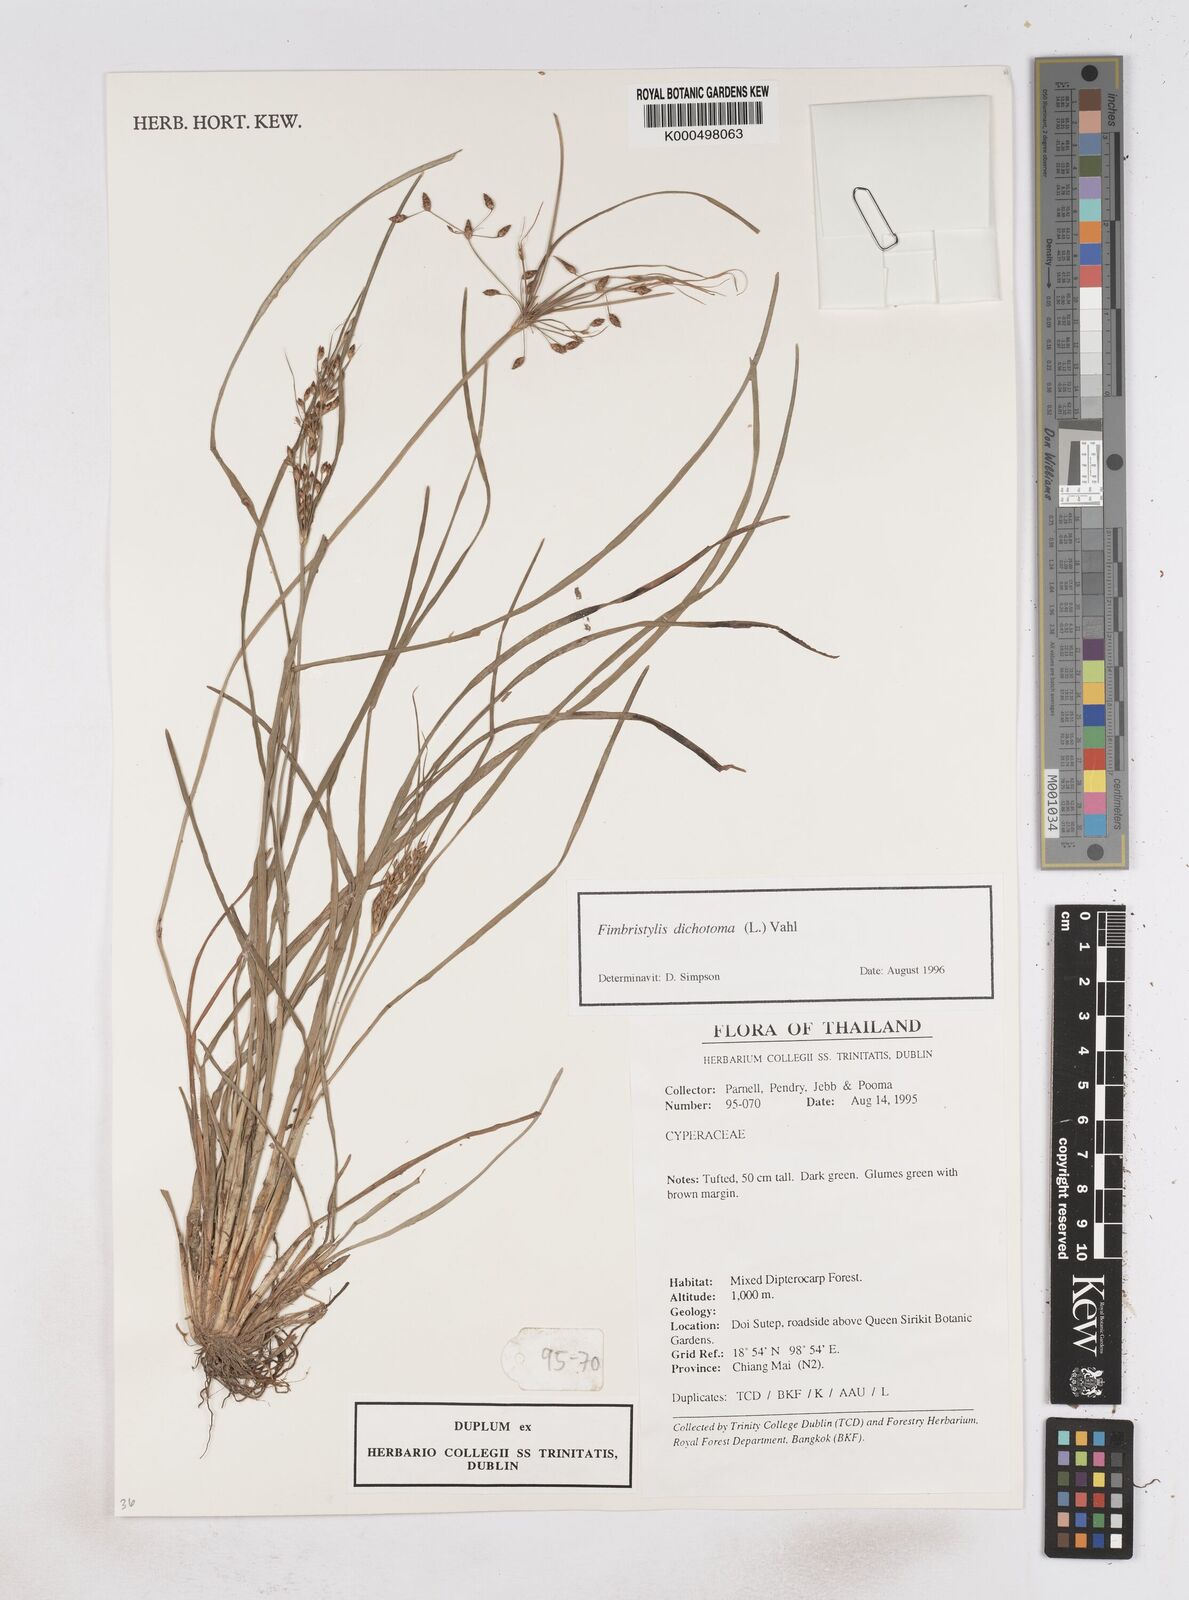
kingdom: Plantae
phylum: Tracheophyta
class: Liliopsida
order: Poales
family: Cyperaceae
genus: Fimbristylis
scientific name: Fimbristylis dichotoma
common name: Forked fimbry
